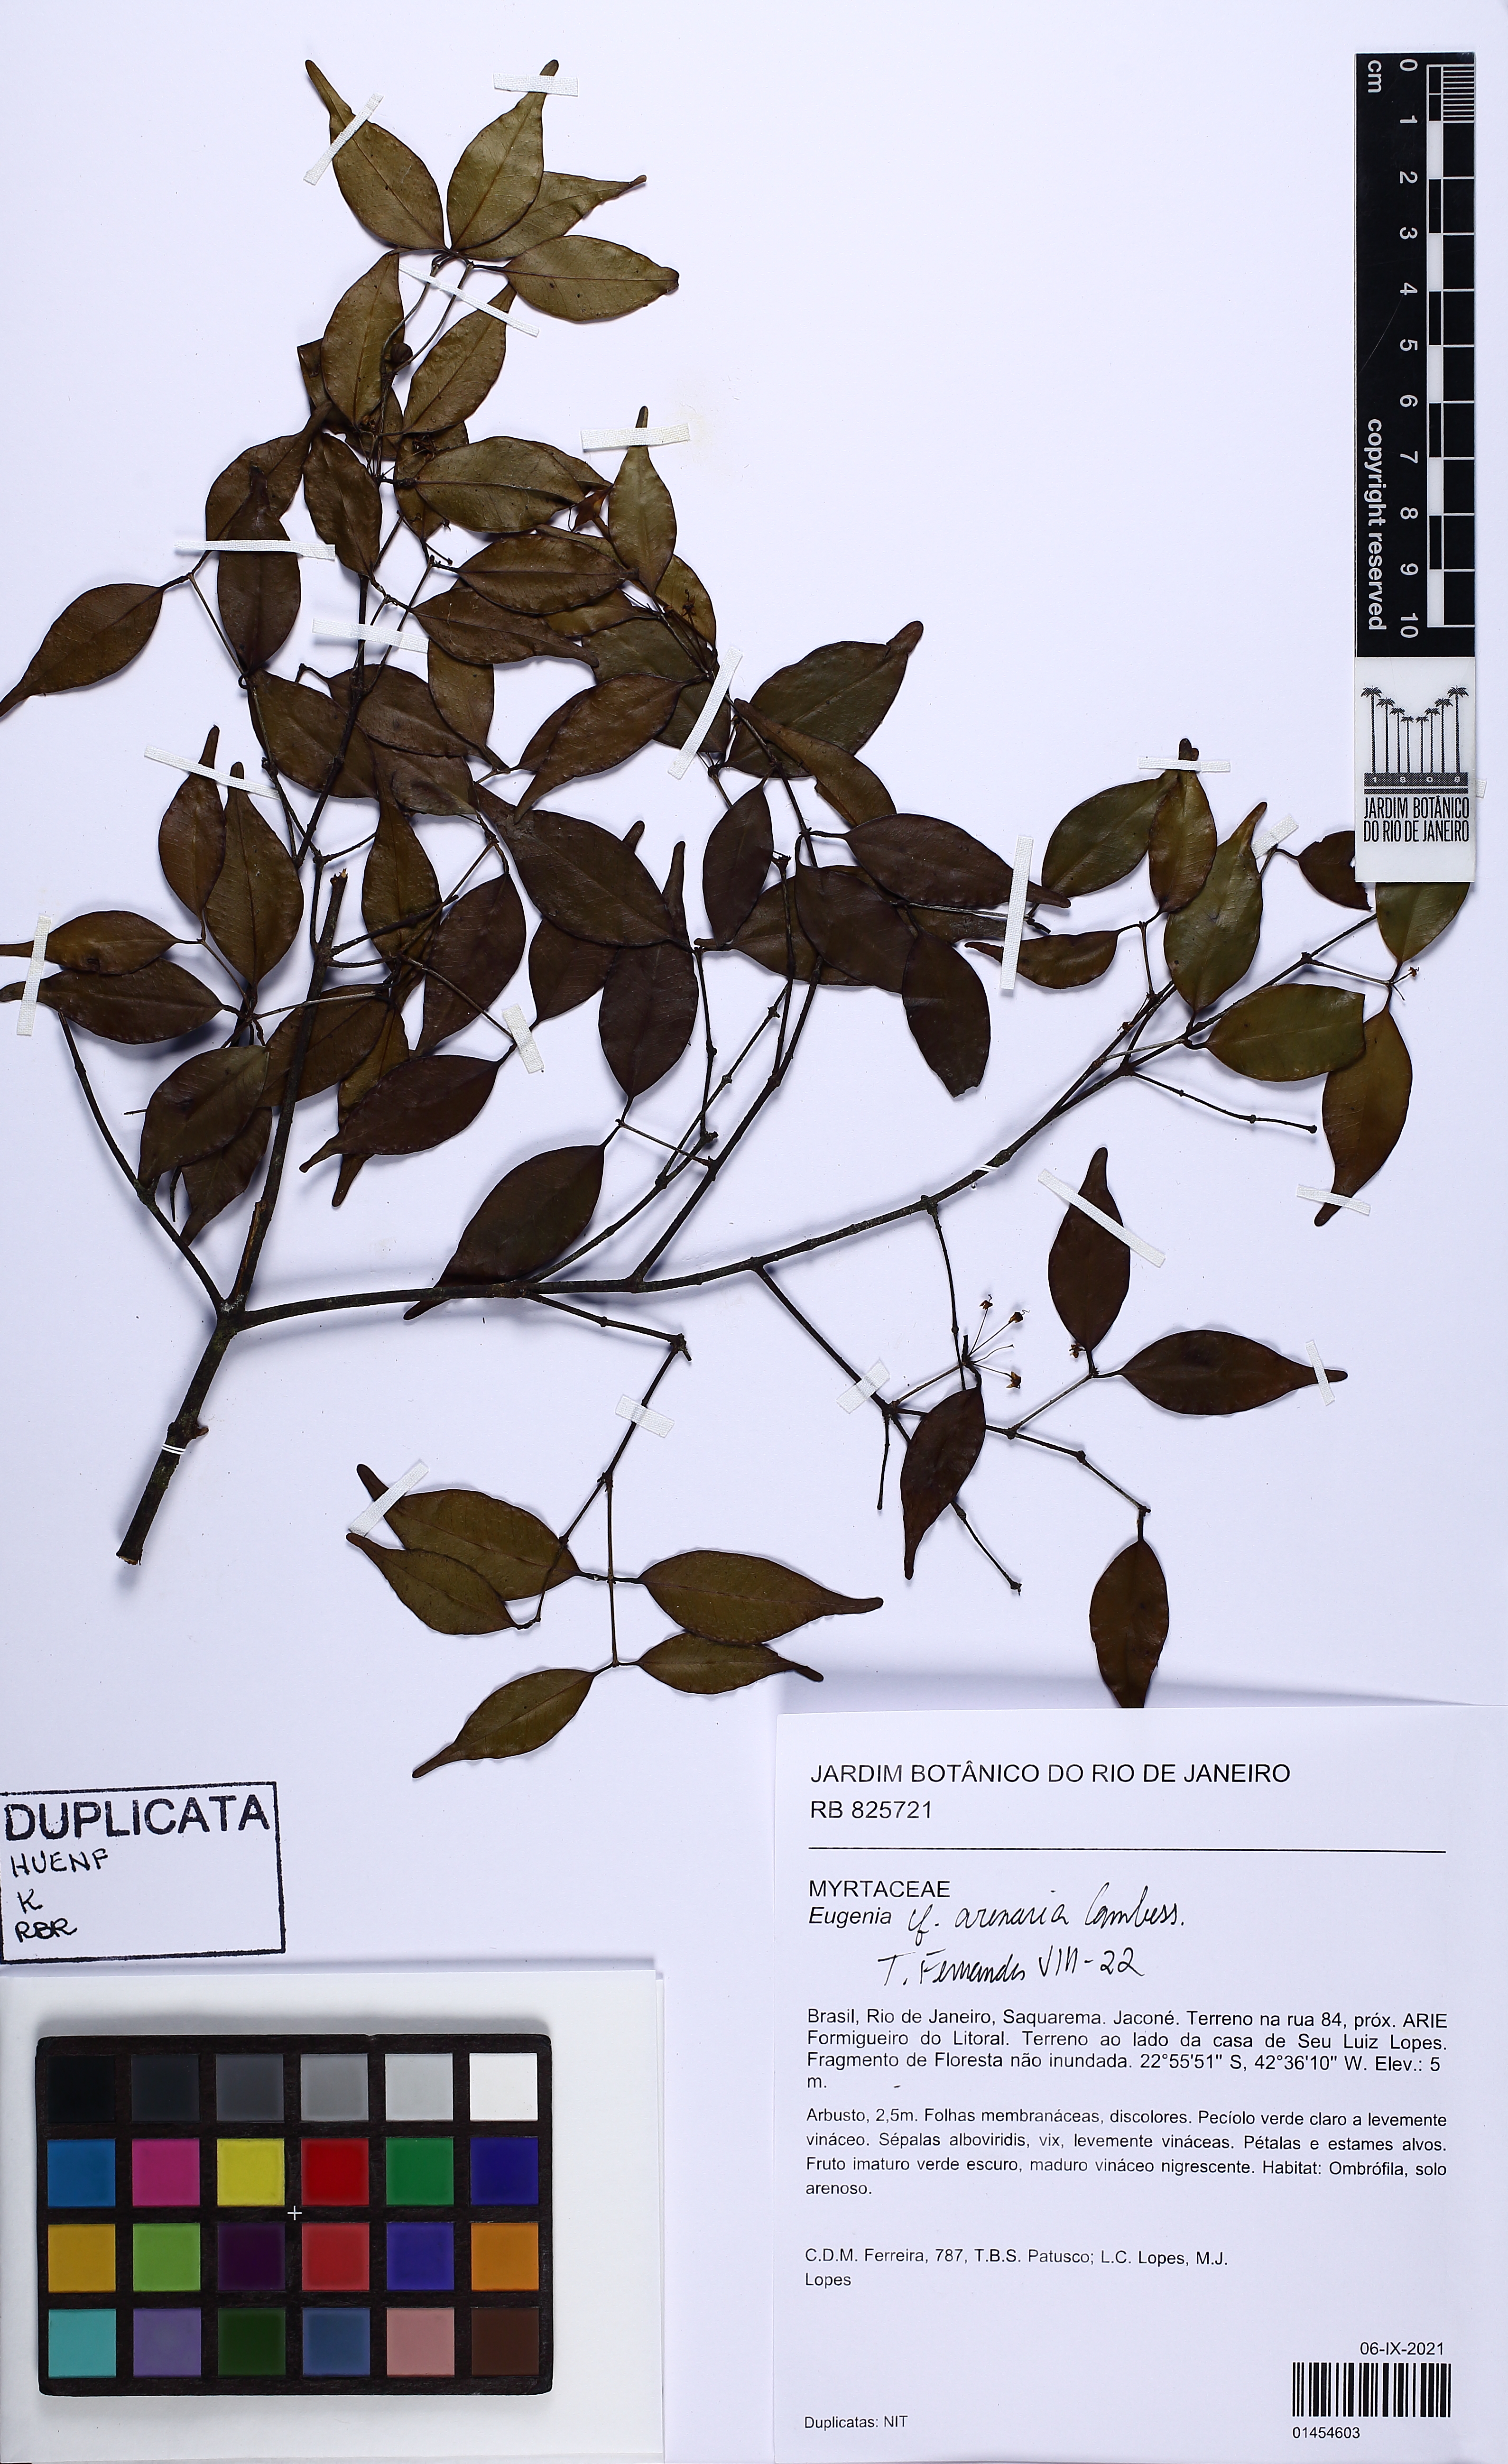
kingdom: Plantae
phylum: Tracheophyta
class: Magnoliopsida
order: Myrtales
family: Myrtaceae
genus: Eugenia
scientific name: Eugenia arenaria
